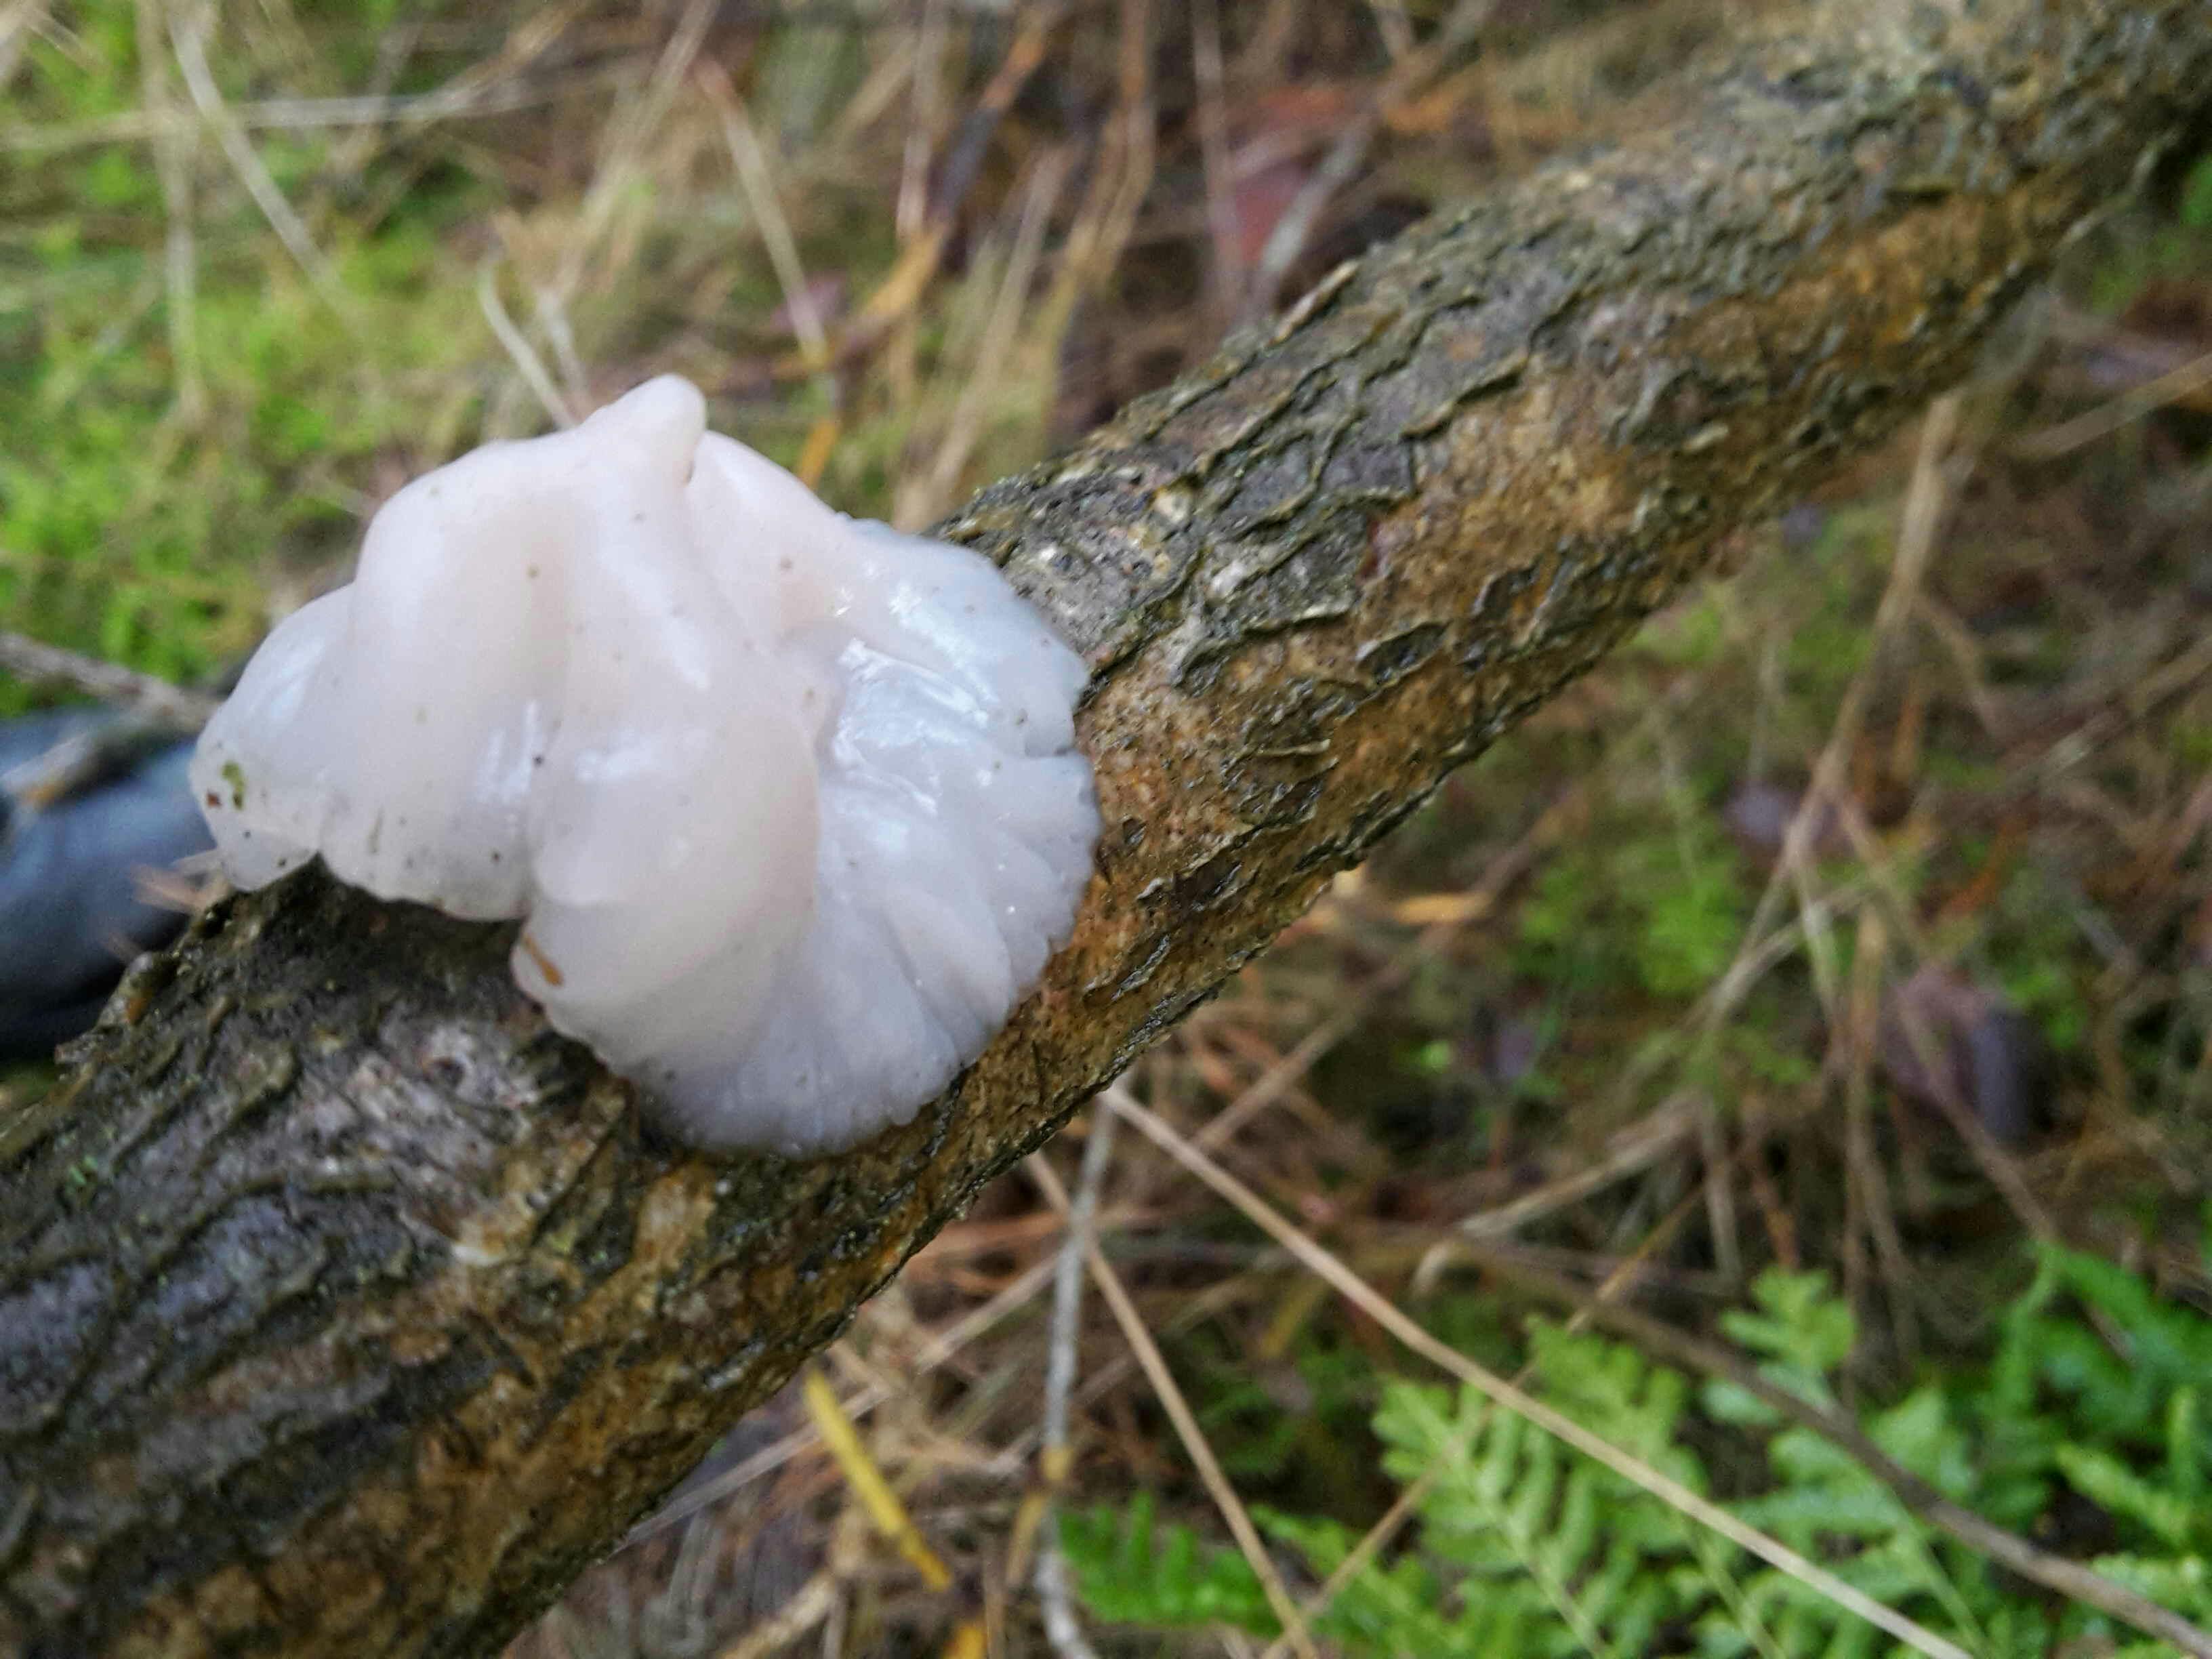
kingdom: Fungi
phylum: Basidiomycota
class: Agaricomycetes
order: Auriculariales
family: Auriculariaceae
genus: Exidia
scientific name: Exidia thuretiana
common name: hvidlig bævretop
